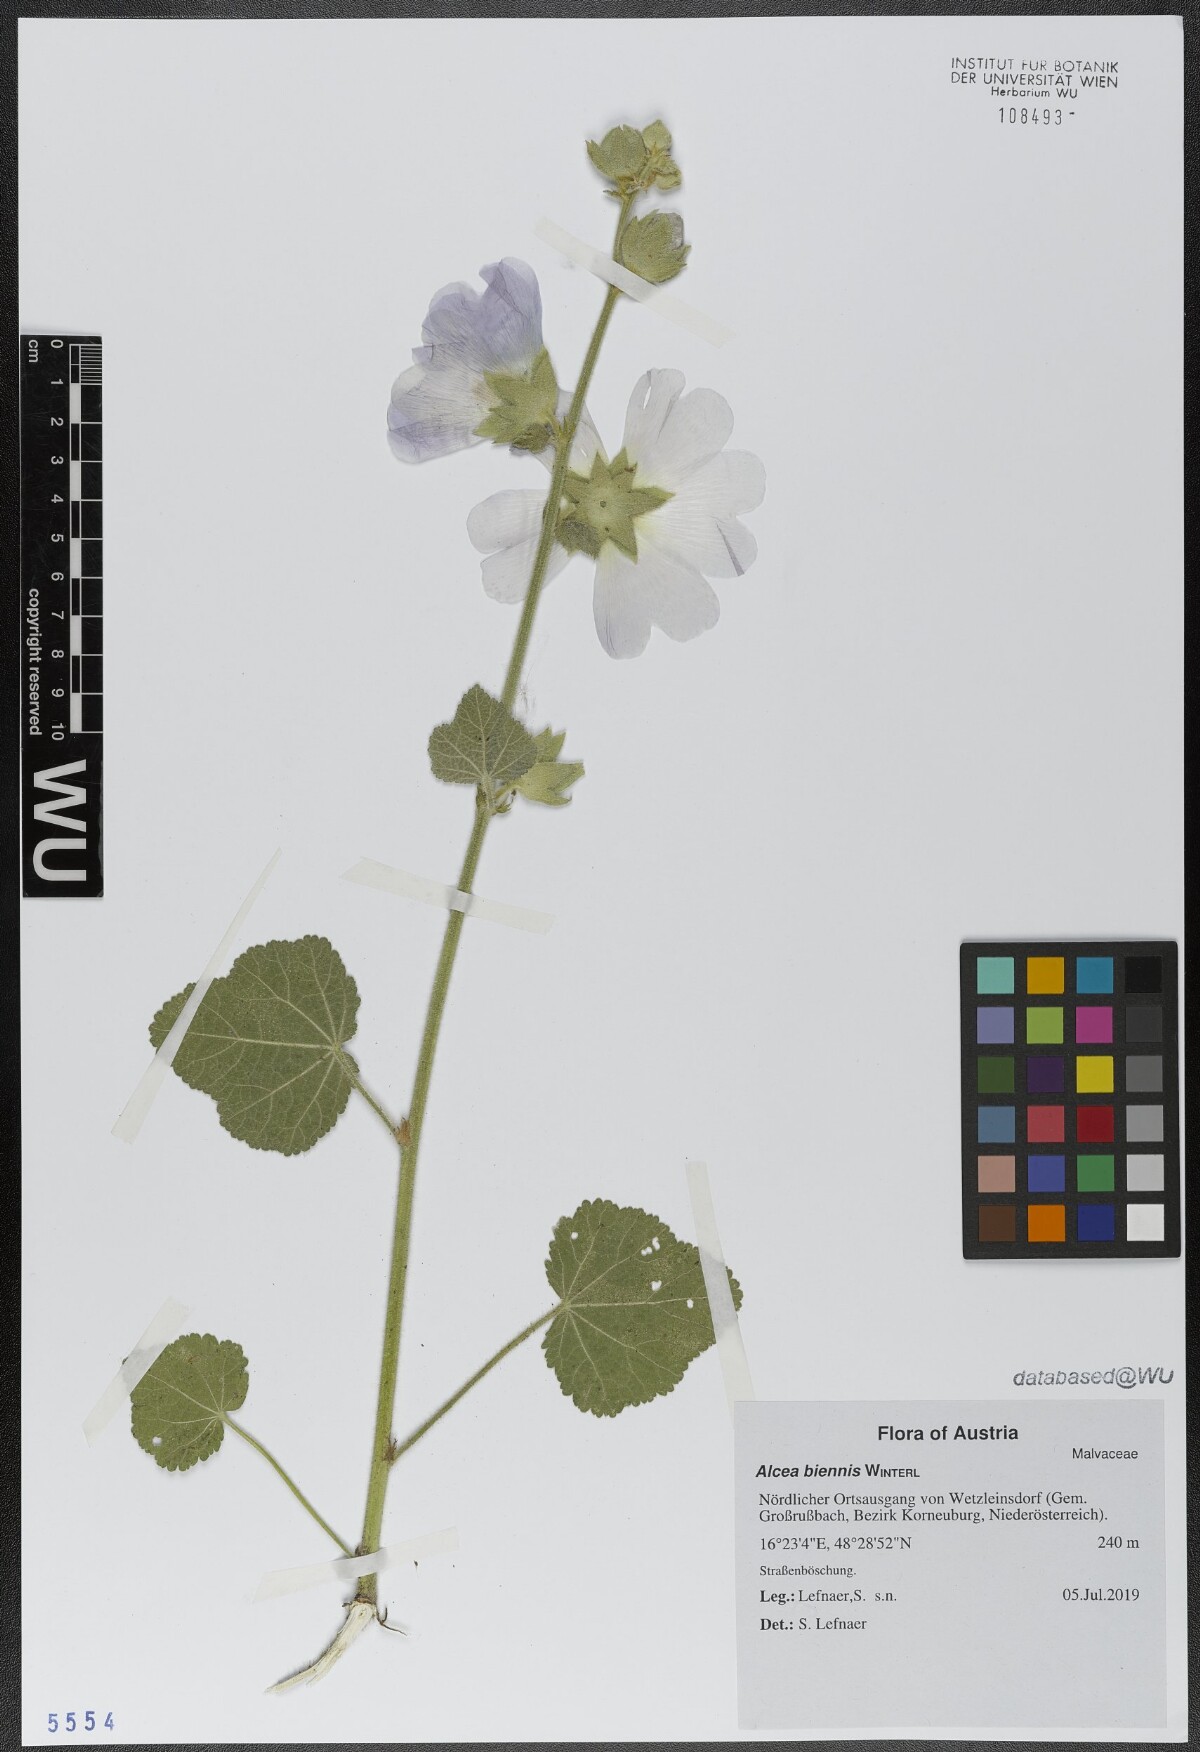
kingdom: Plantae
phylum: Tracheophyta
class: Magnoliopsida
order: Malvales
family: Malvaceae
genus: Alcea
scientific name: Alcea biennis
